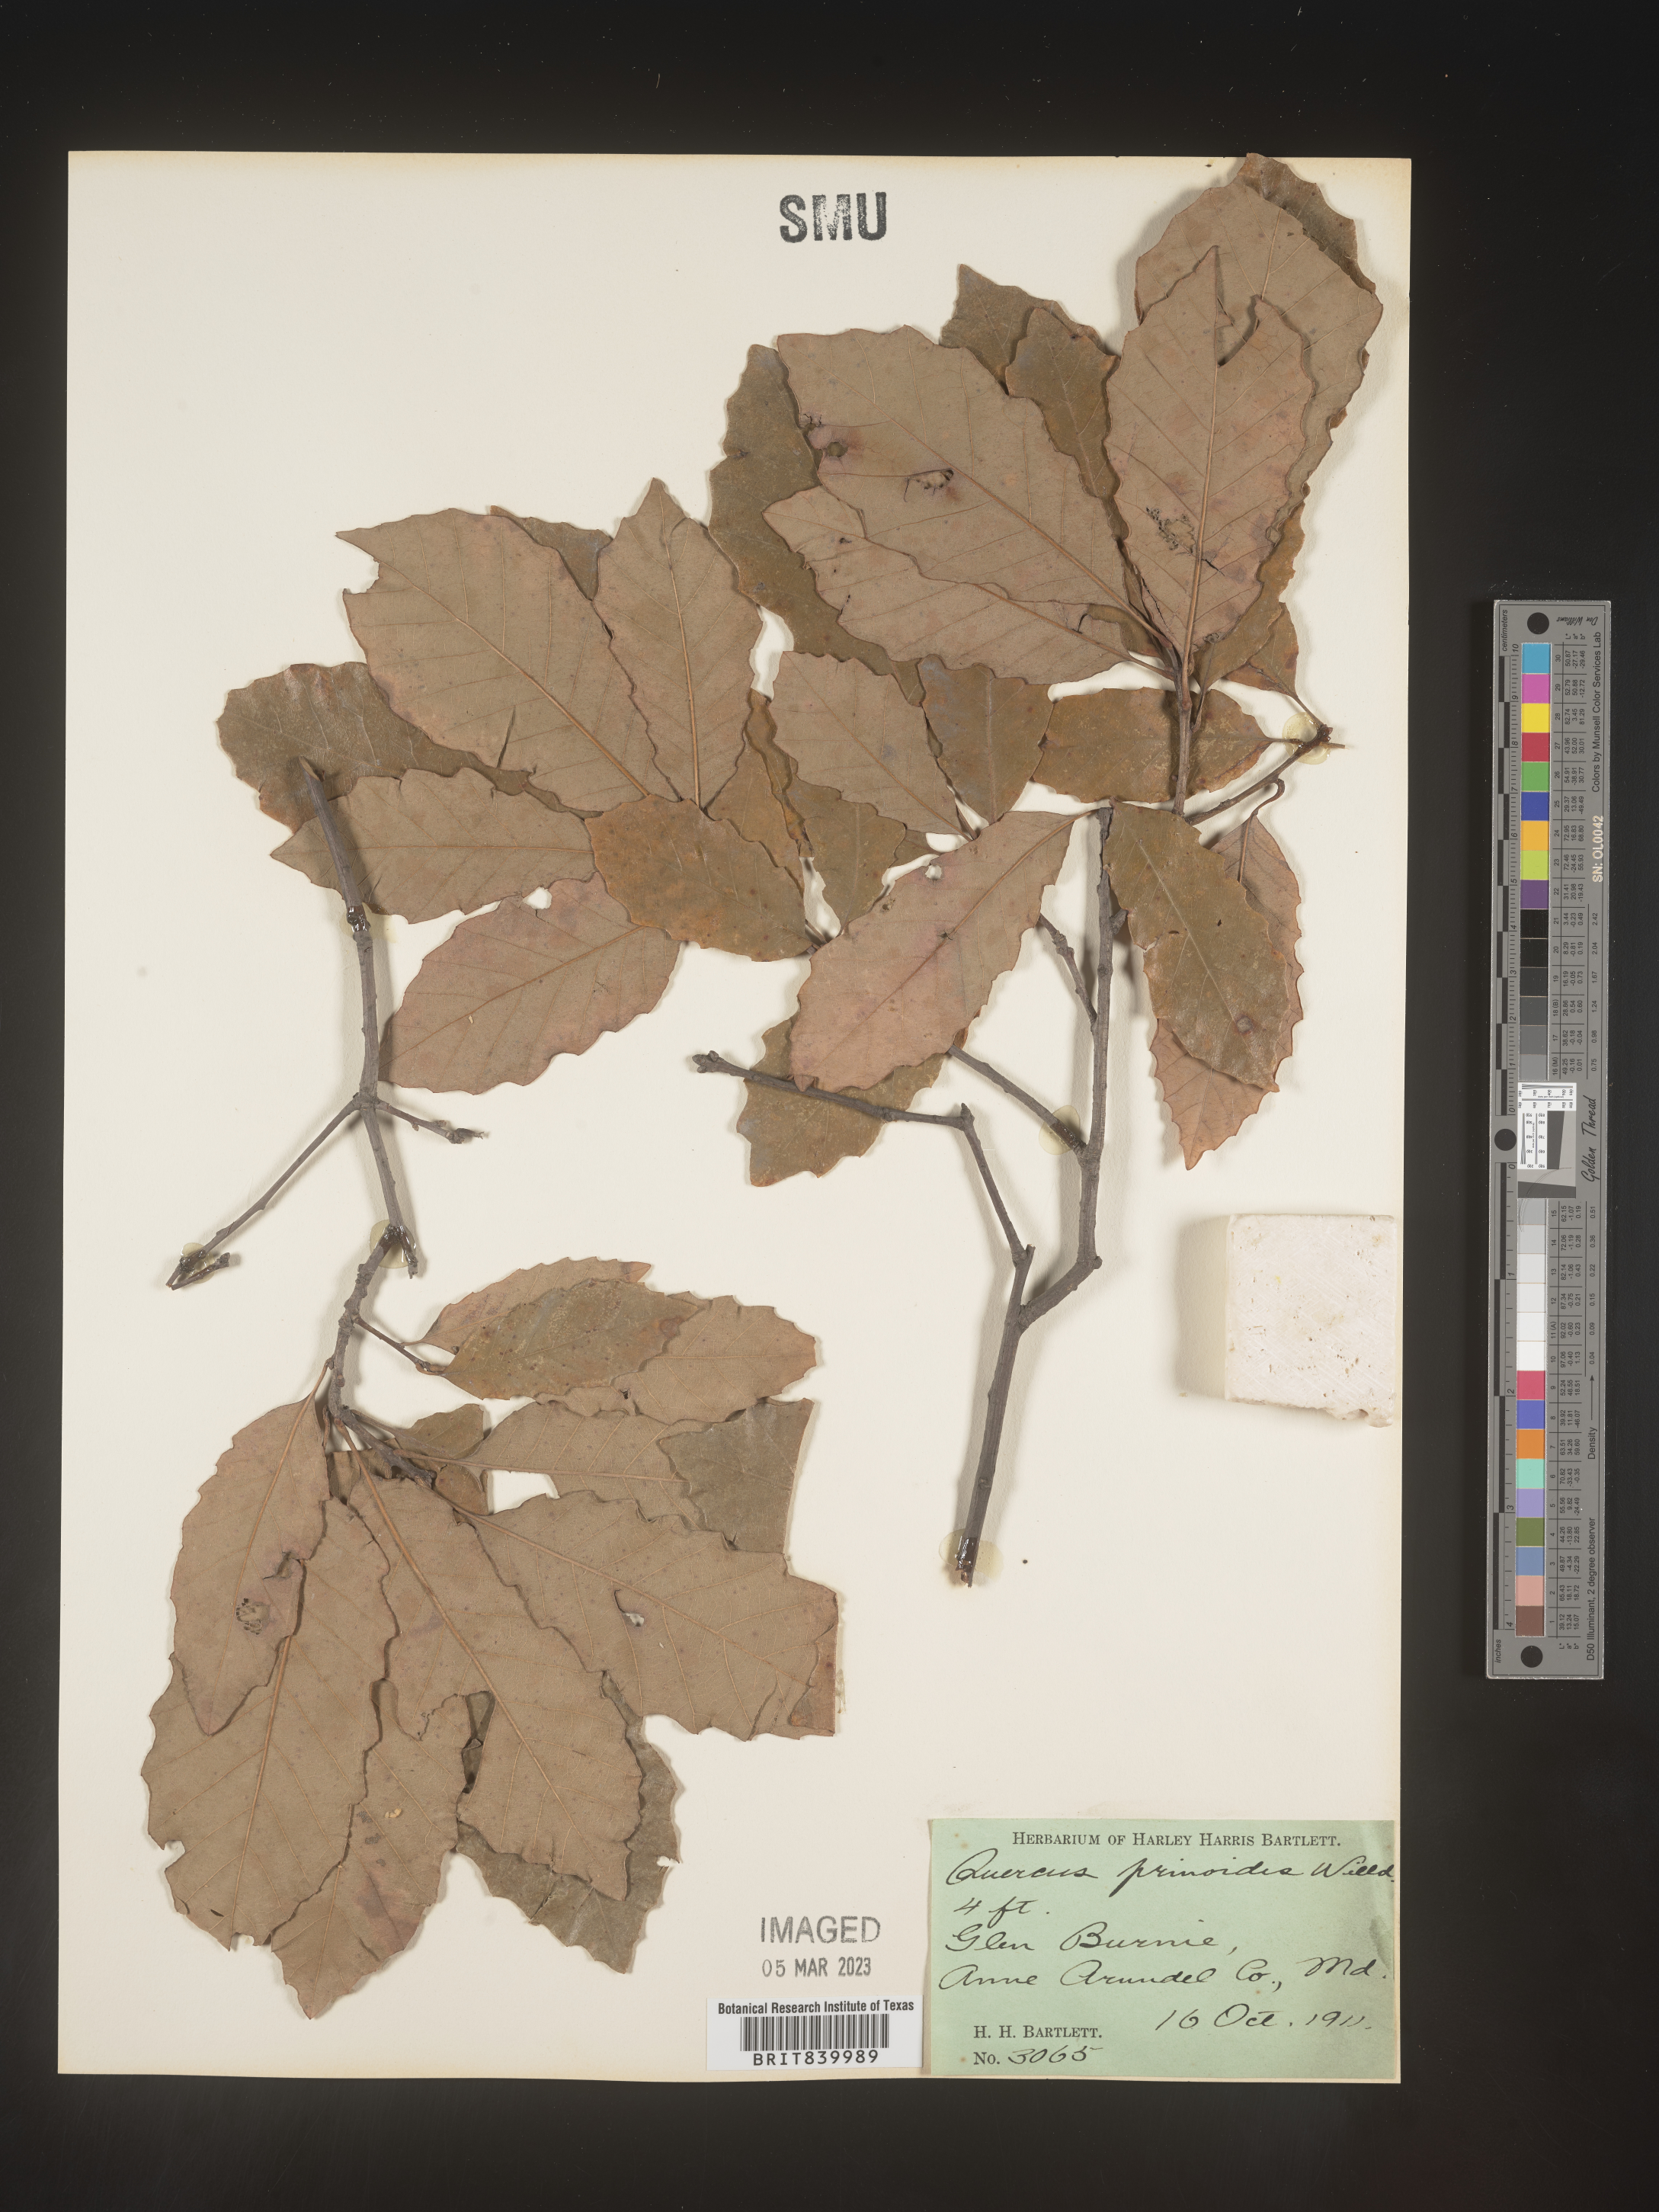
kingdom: Plantae
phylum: Tracheophyta
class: Magnoliopsida
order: Fagales
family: Fagaceae
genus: Quercus
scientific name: Quercus prinoides
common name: Dwarf chinkapin oak
